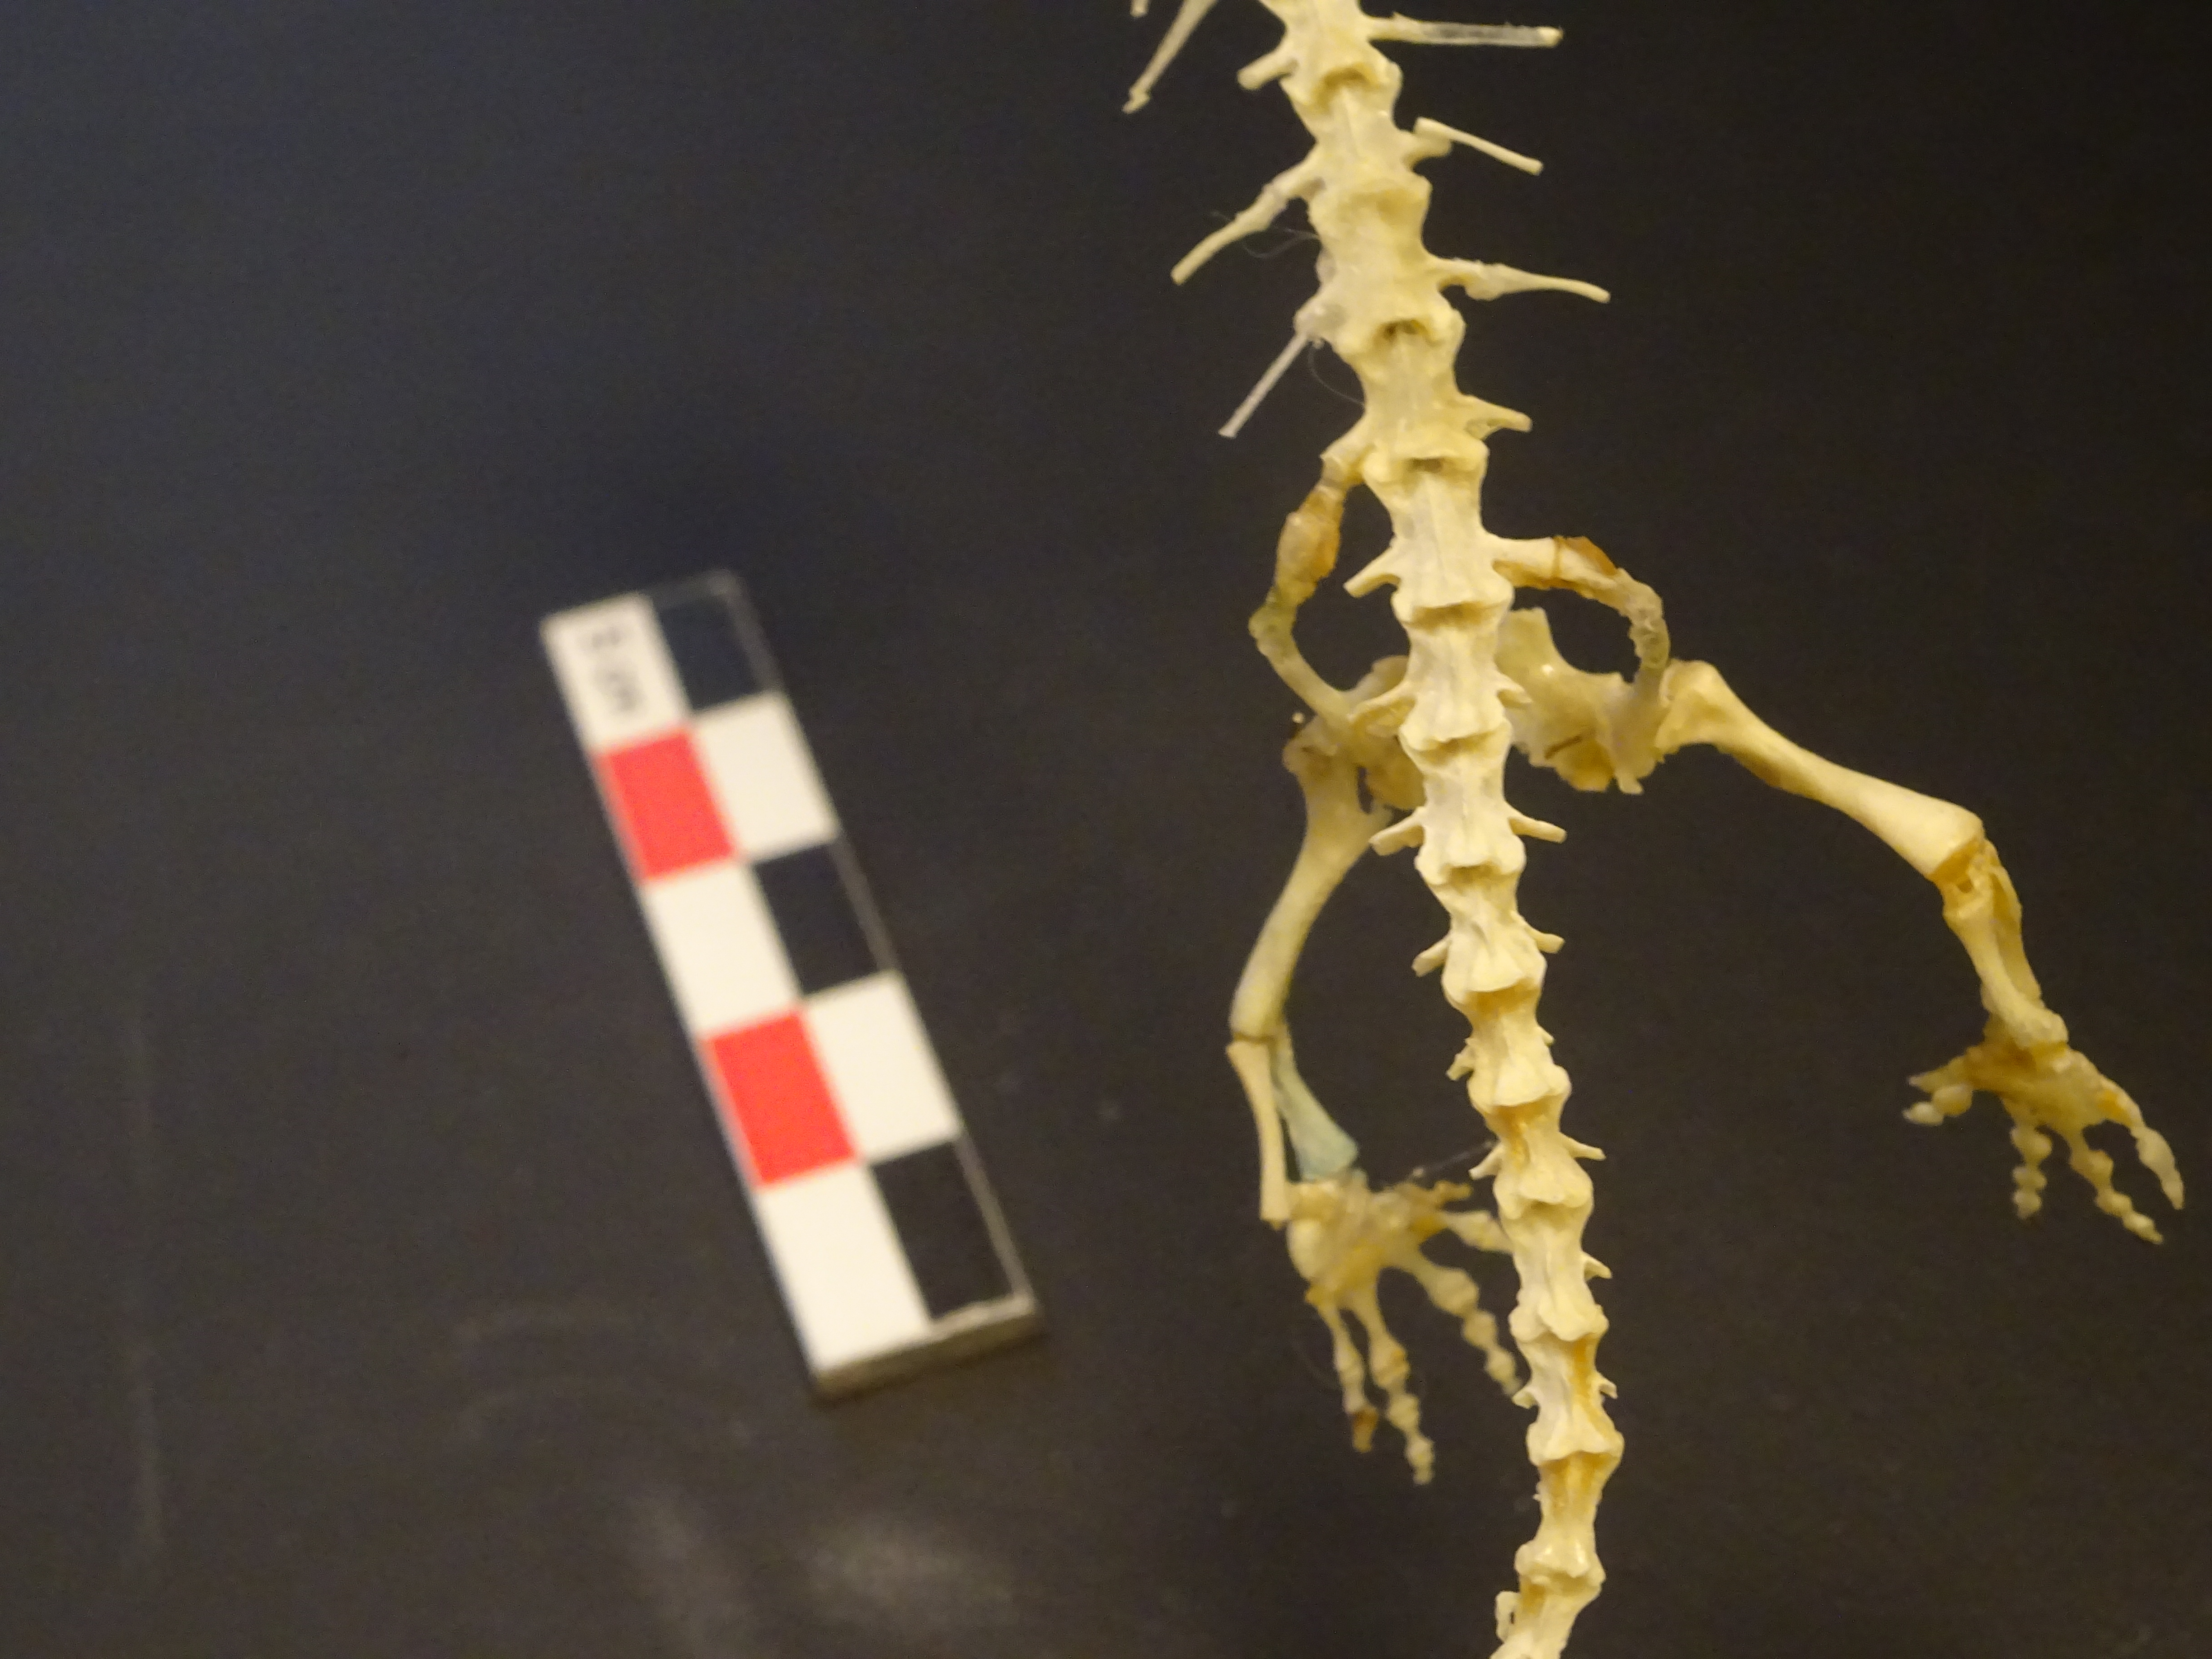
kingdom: Animalia
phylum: Chordata
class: Amphibia
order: Caudata
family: Salamandridae
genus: Salamandra
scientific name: Salamandra salamandra
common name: Fire salamander
